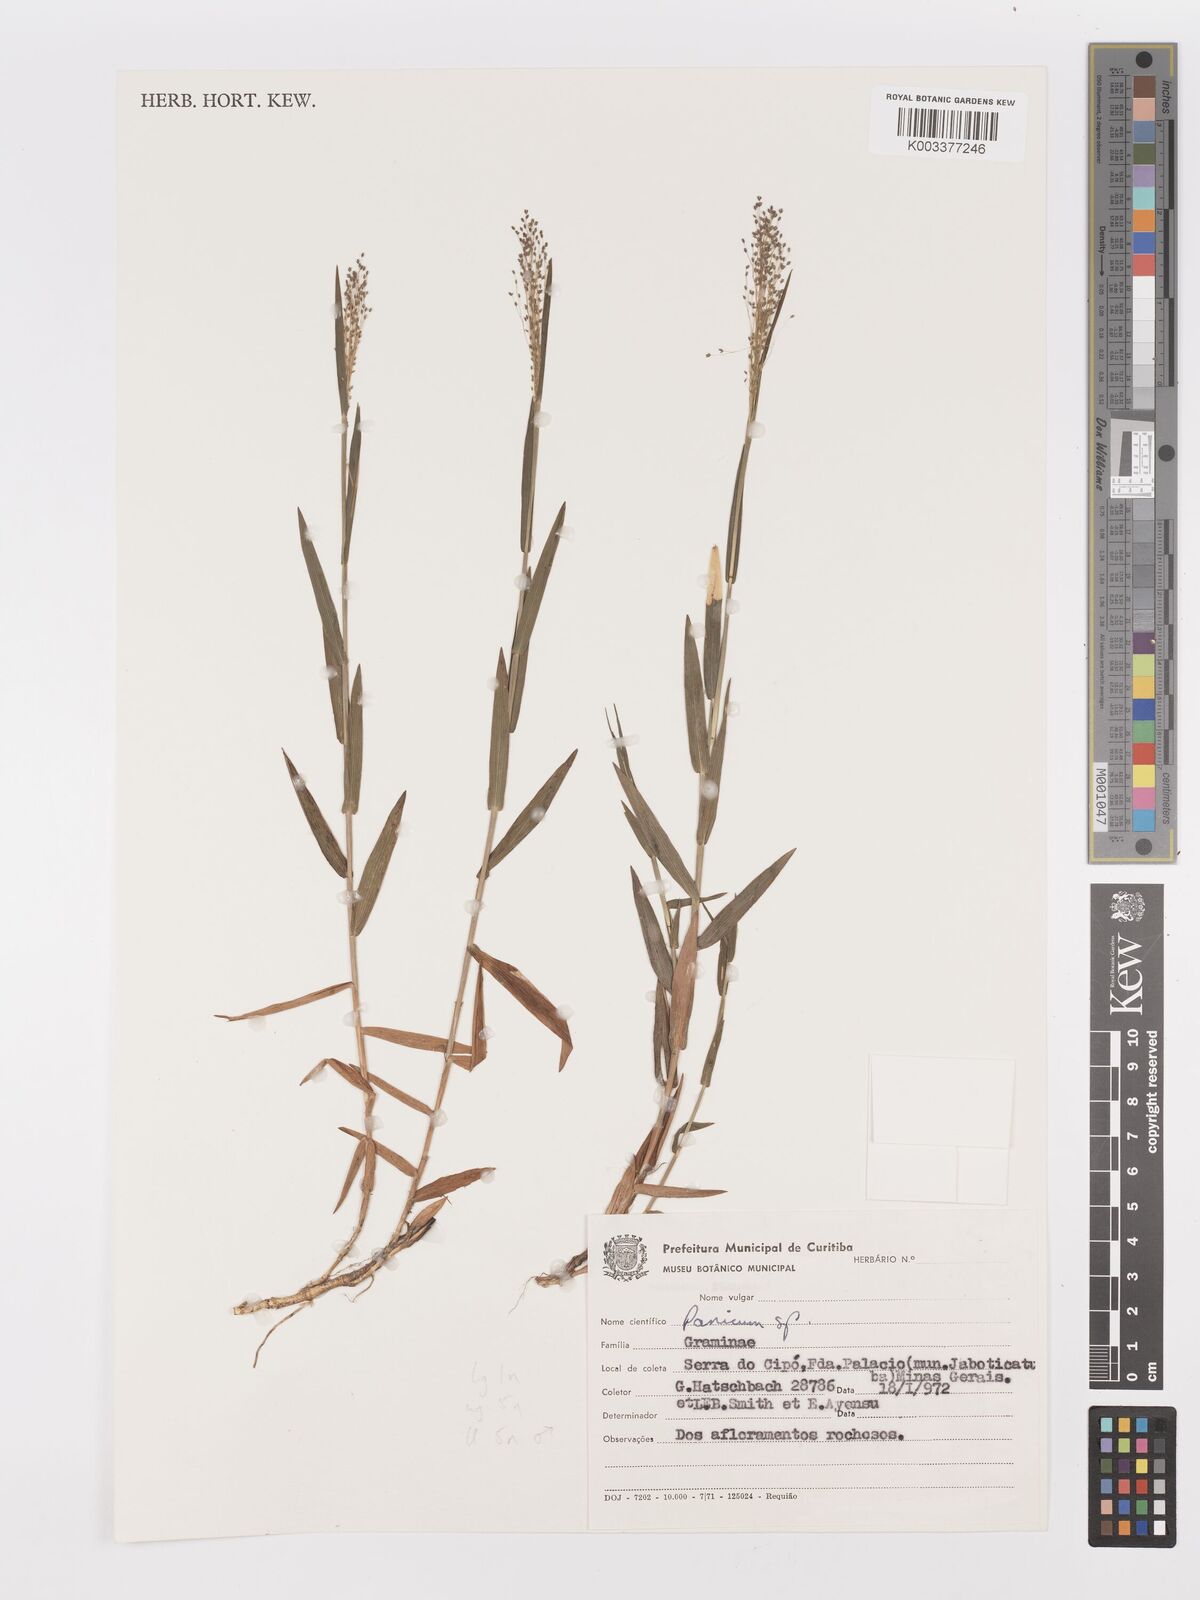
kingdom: Plantae
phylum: Tracheophyta
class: Liliopsida
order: Poales
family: Poaceae
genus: Trichanthecium
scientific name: Trichanthecium pseudisachne
